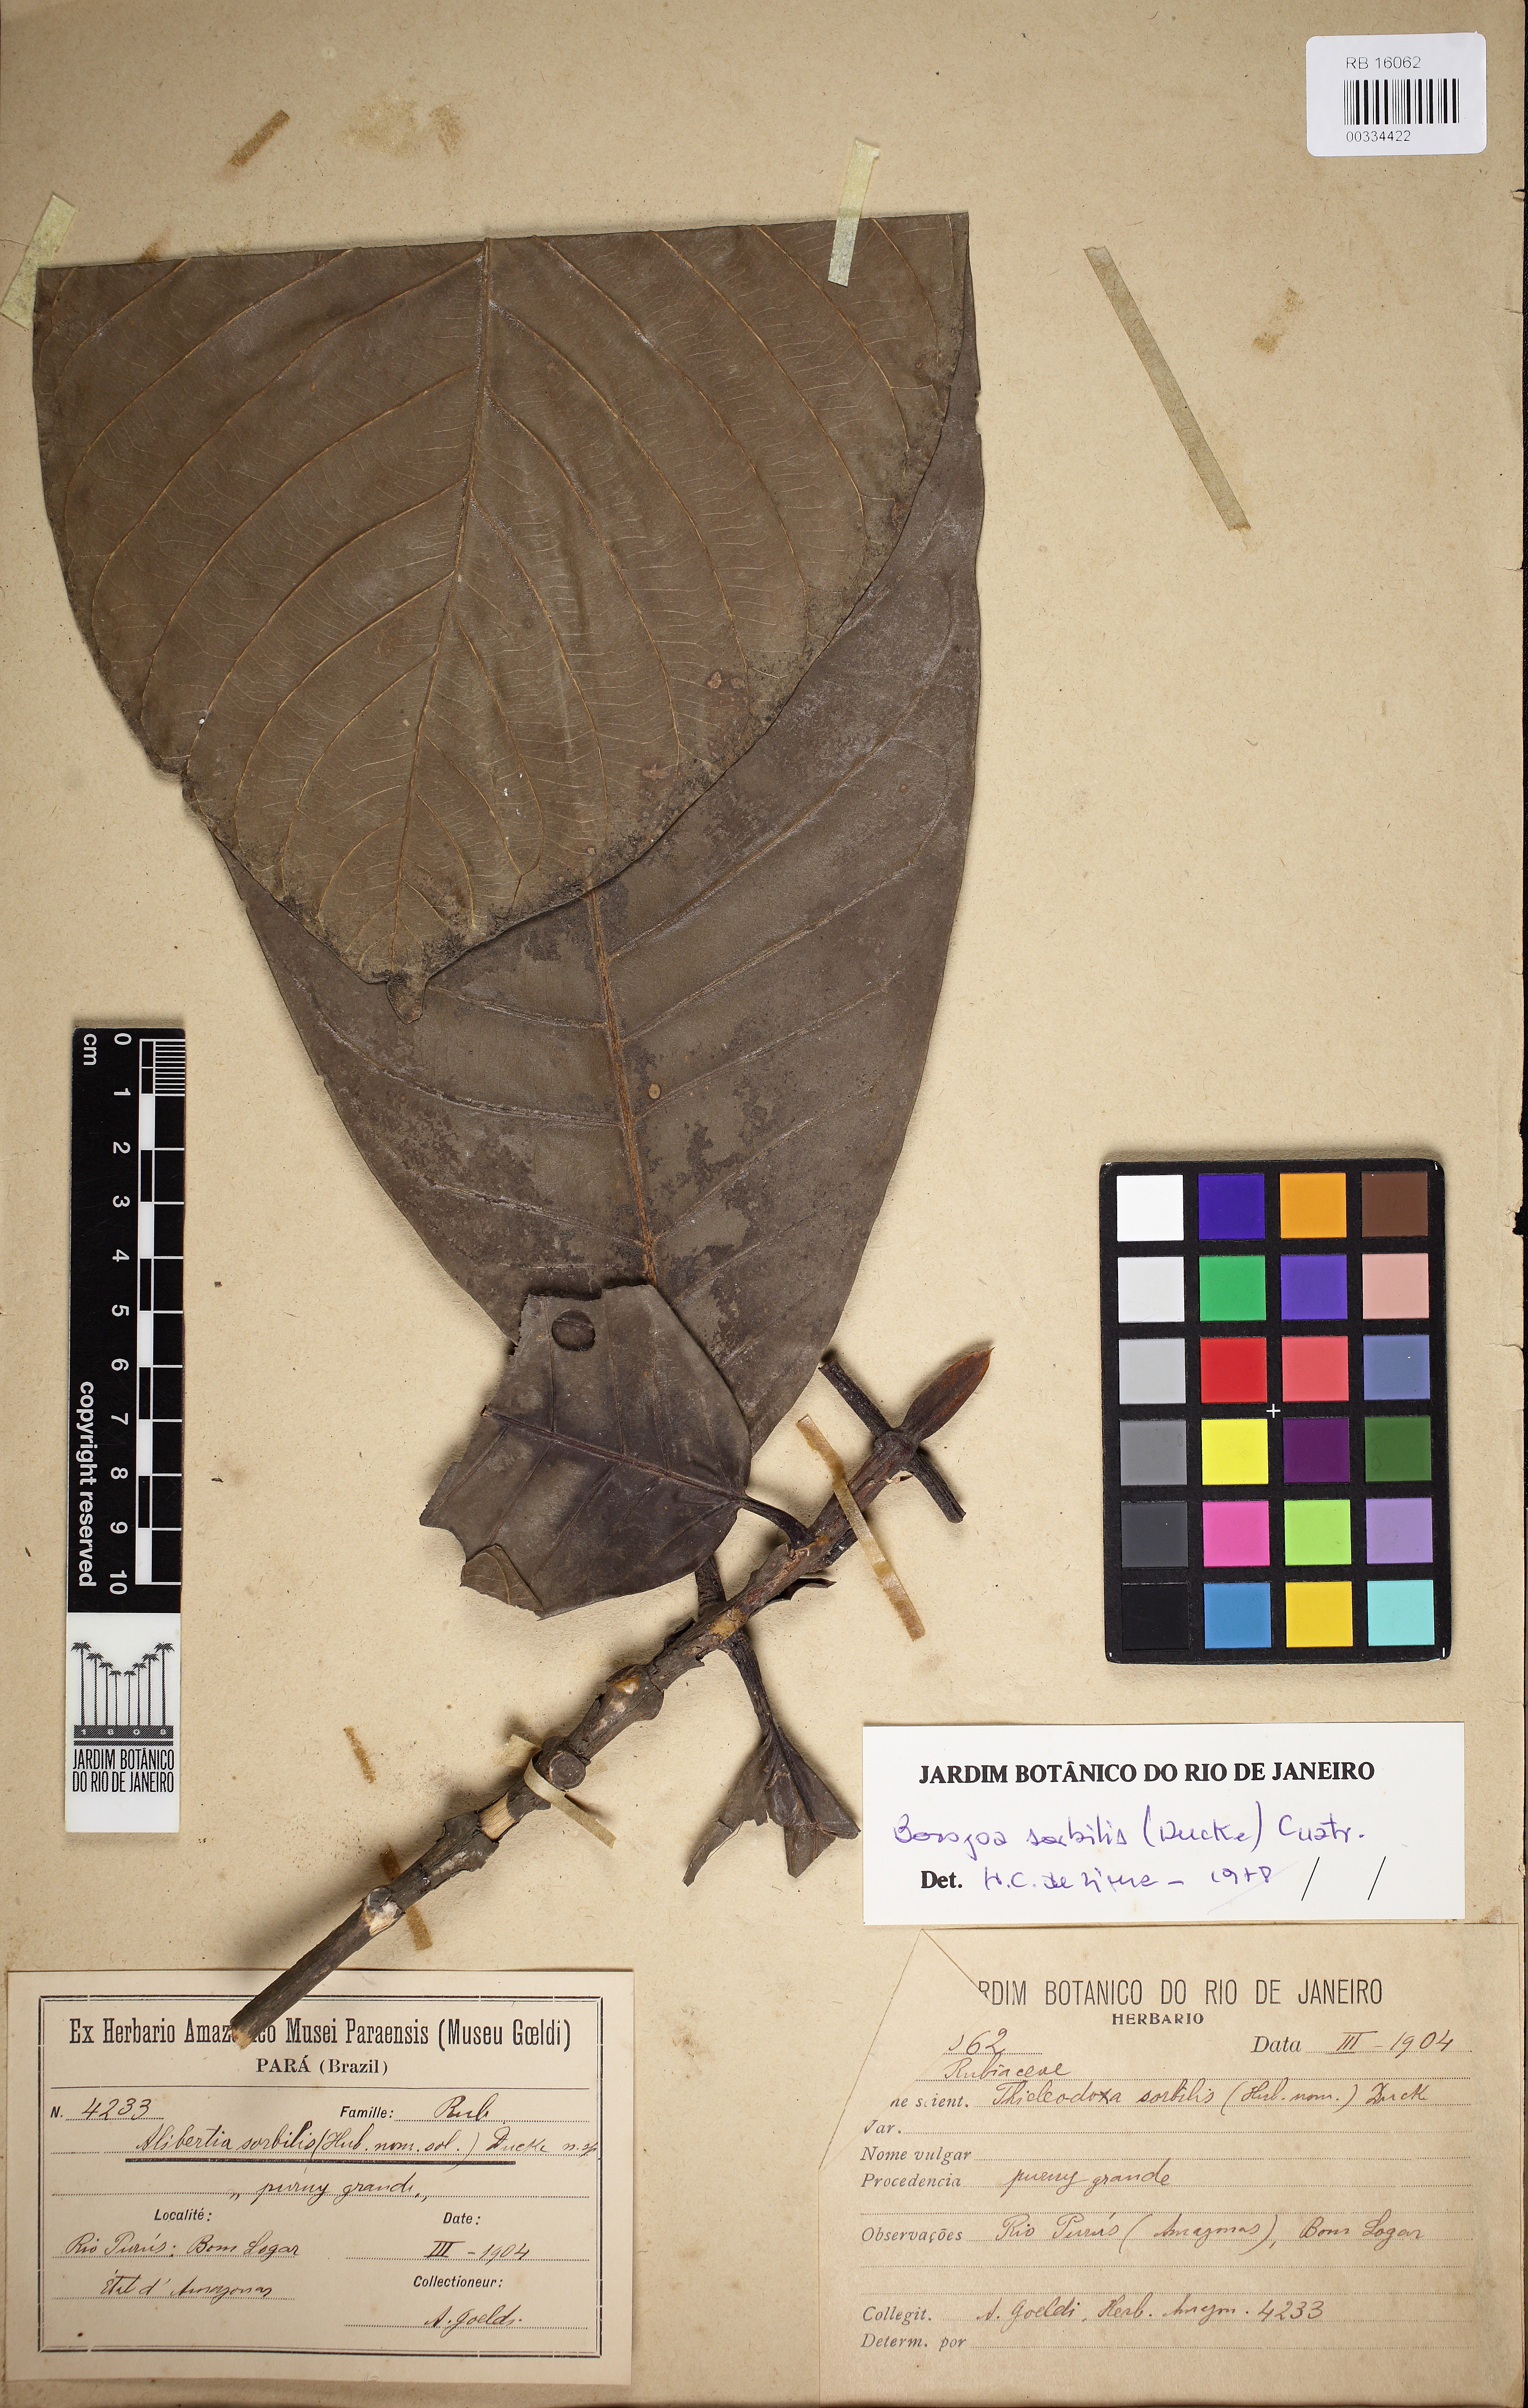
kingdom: Plantae
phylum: Tracheophyta
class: Magnoliopsida
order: Gentianales
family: Rubiaceae
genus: Alibertia
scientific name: Alibertia sorbilis
